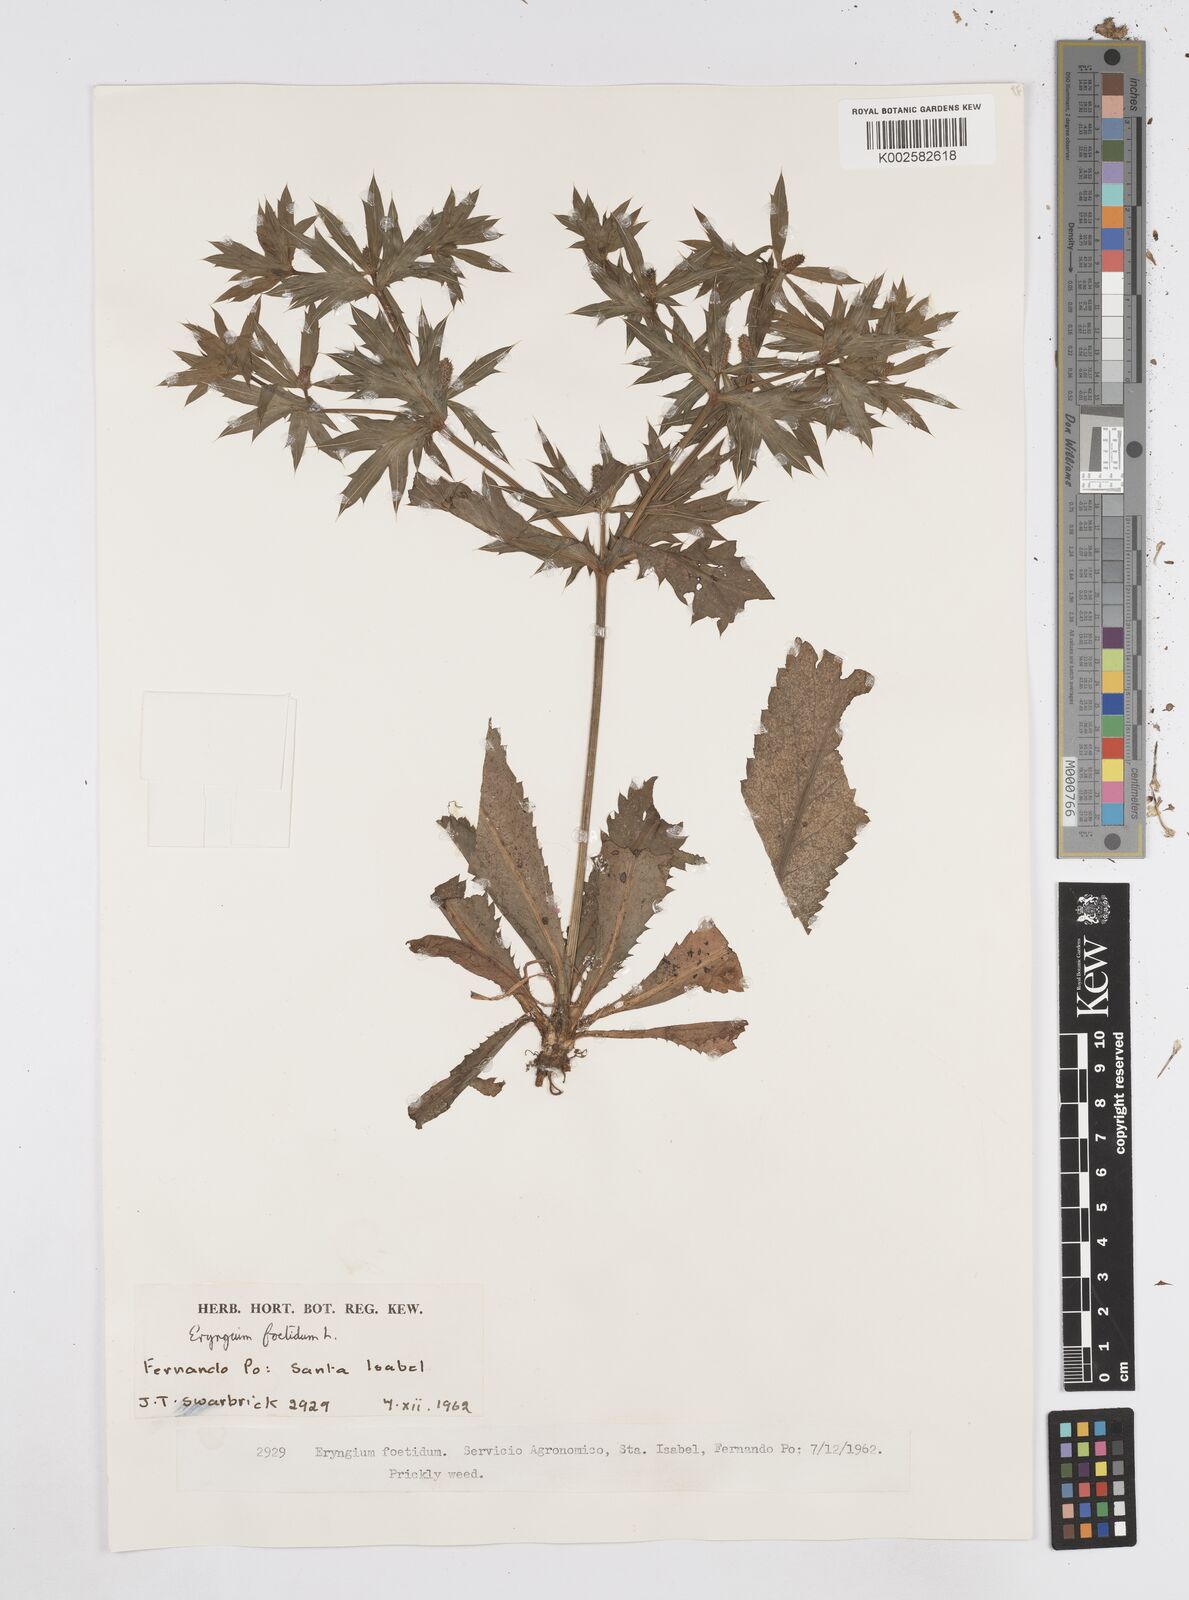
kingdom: Plantae
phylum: Tracheophyta
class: Magnoliopsida
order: Apiales
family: Apiaceae
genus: Eryngium
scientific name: Eryngium foetidum
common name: Fitweed
